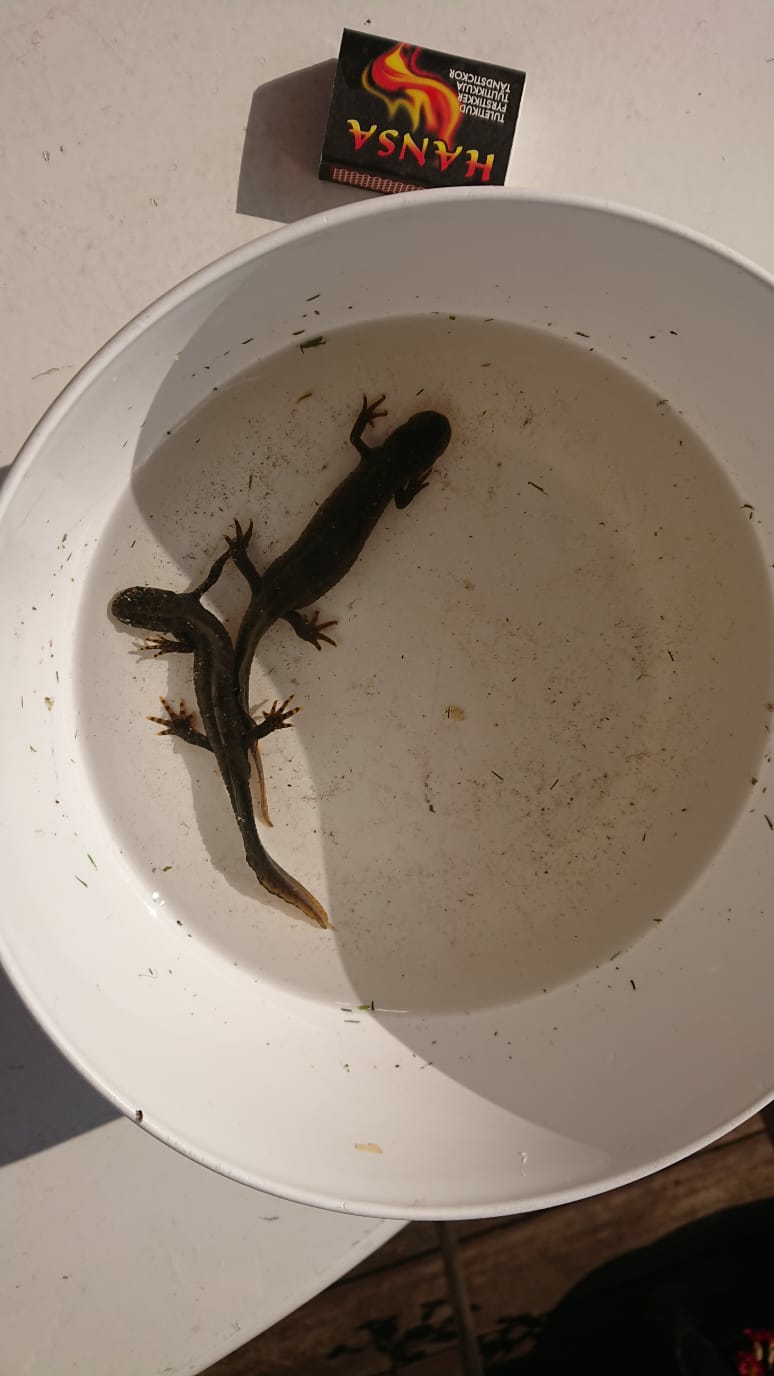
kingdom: Animalia
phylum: Chordata
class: Amphibia
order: Caudata
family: Salamandridae
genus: Triturus
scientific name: Triturus cristatus
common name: Stor vandsalamander
